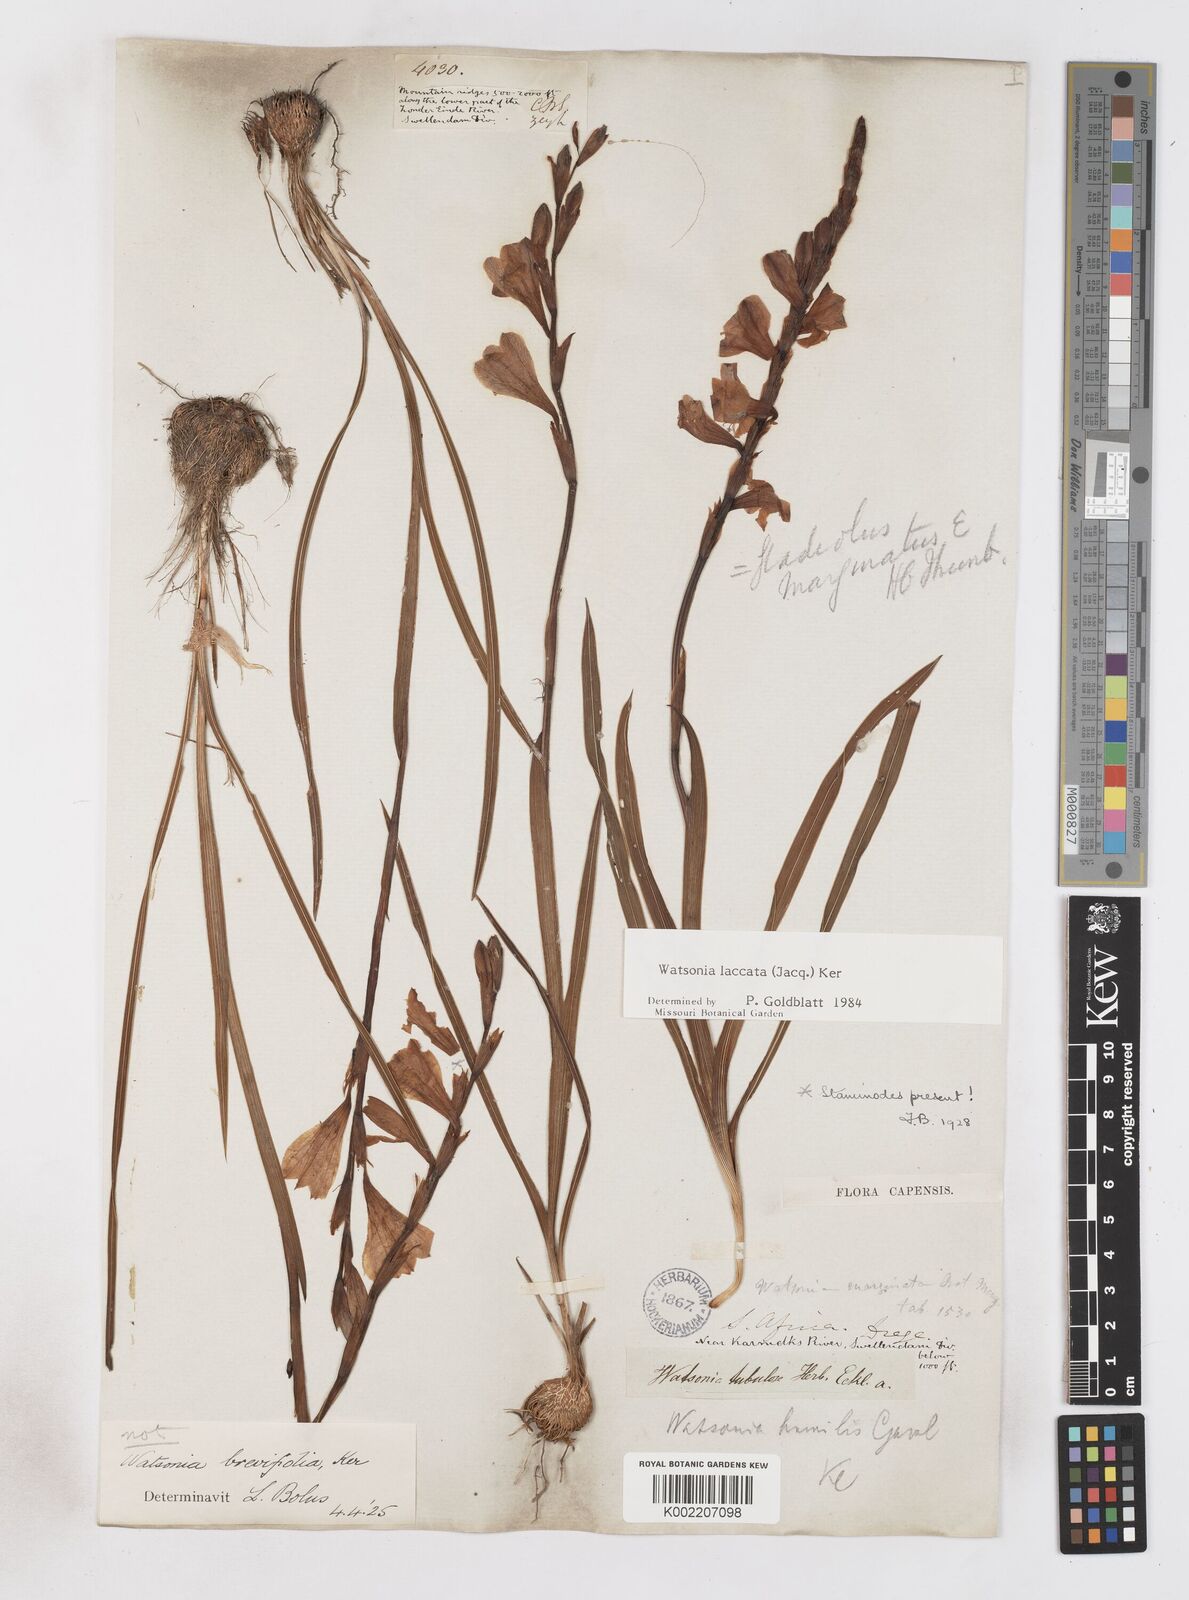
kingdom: Plantae
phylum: Tracheophyta
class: Liliopsida
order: Asparagales
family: Iridaceae
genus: Watsonia
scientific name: Watsonia laccata
